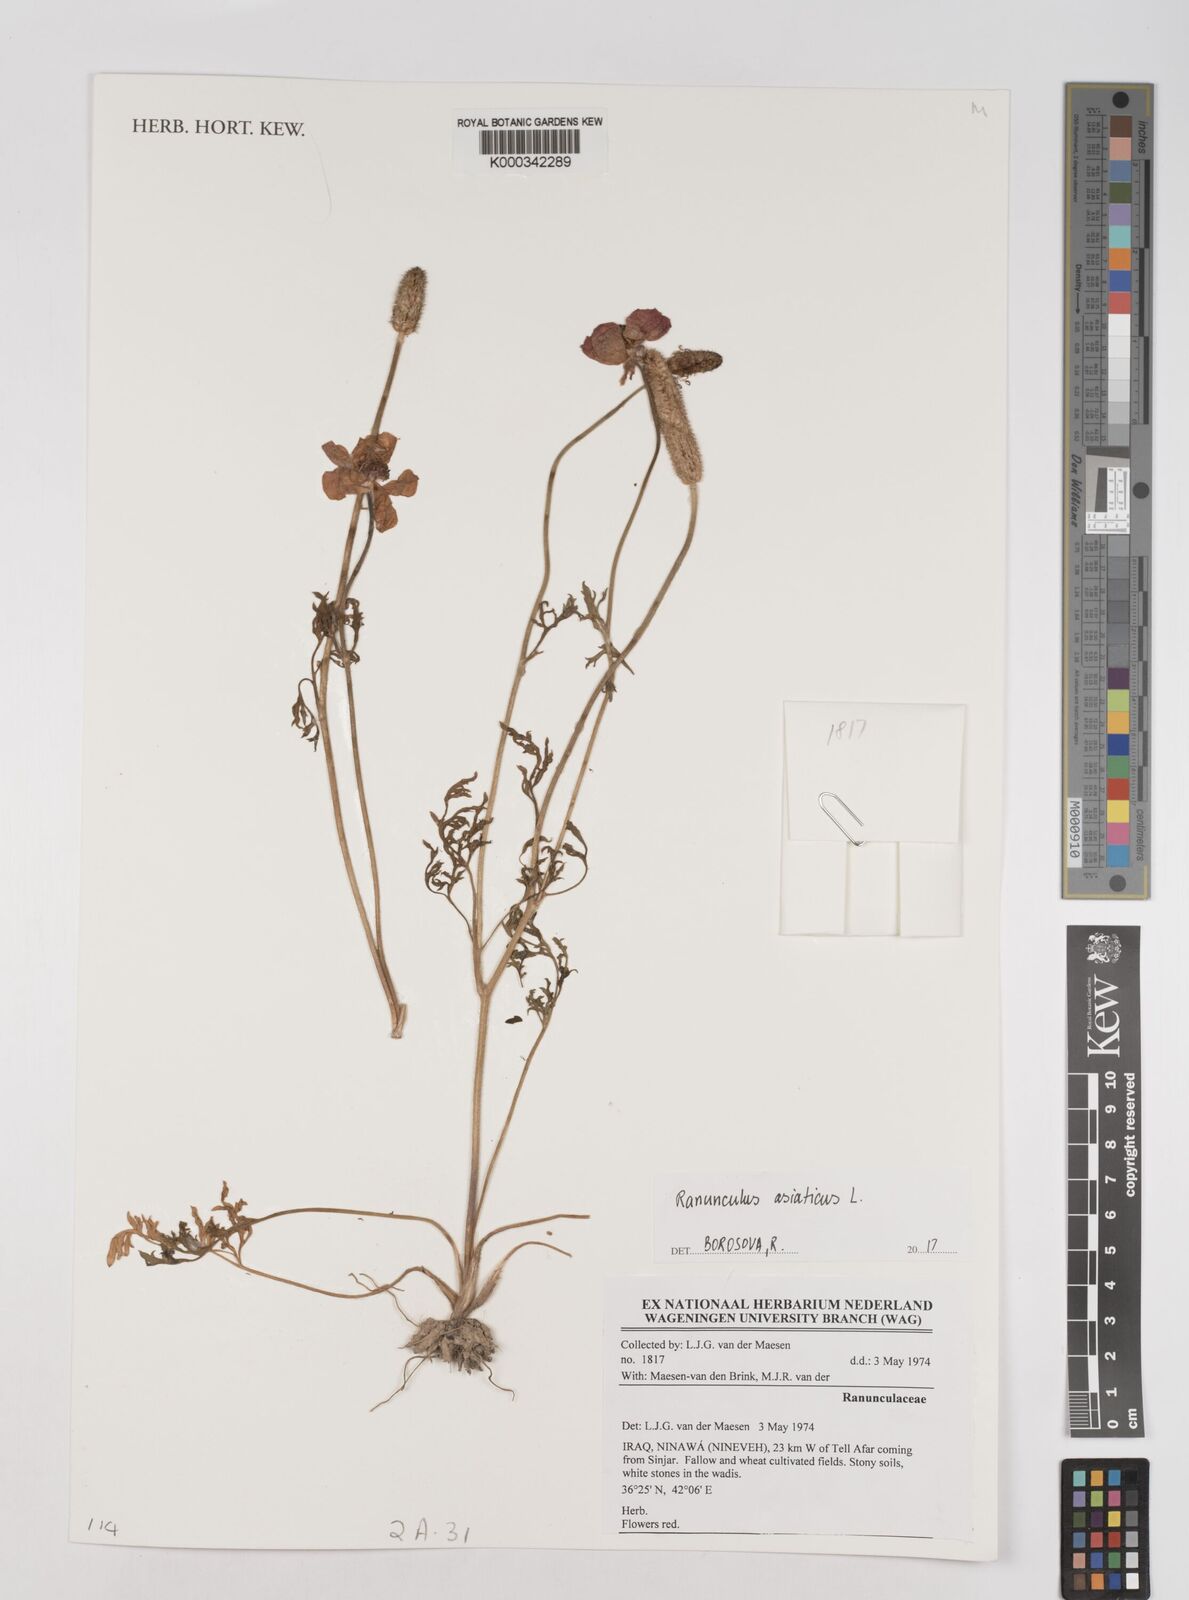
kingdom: Plantae
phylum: Tracheophyta
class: Magnoliopsida
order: Ranunculales
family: Ranunculaceae
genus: Ranunculus
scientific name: Ranunculus asiaticus
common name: Persian buttercup
